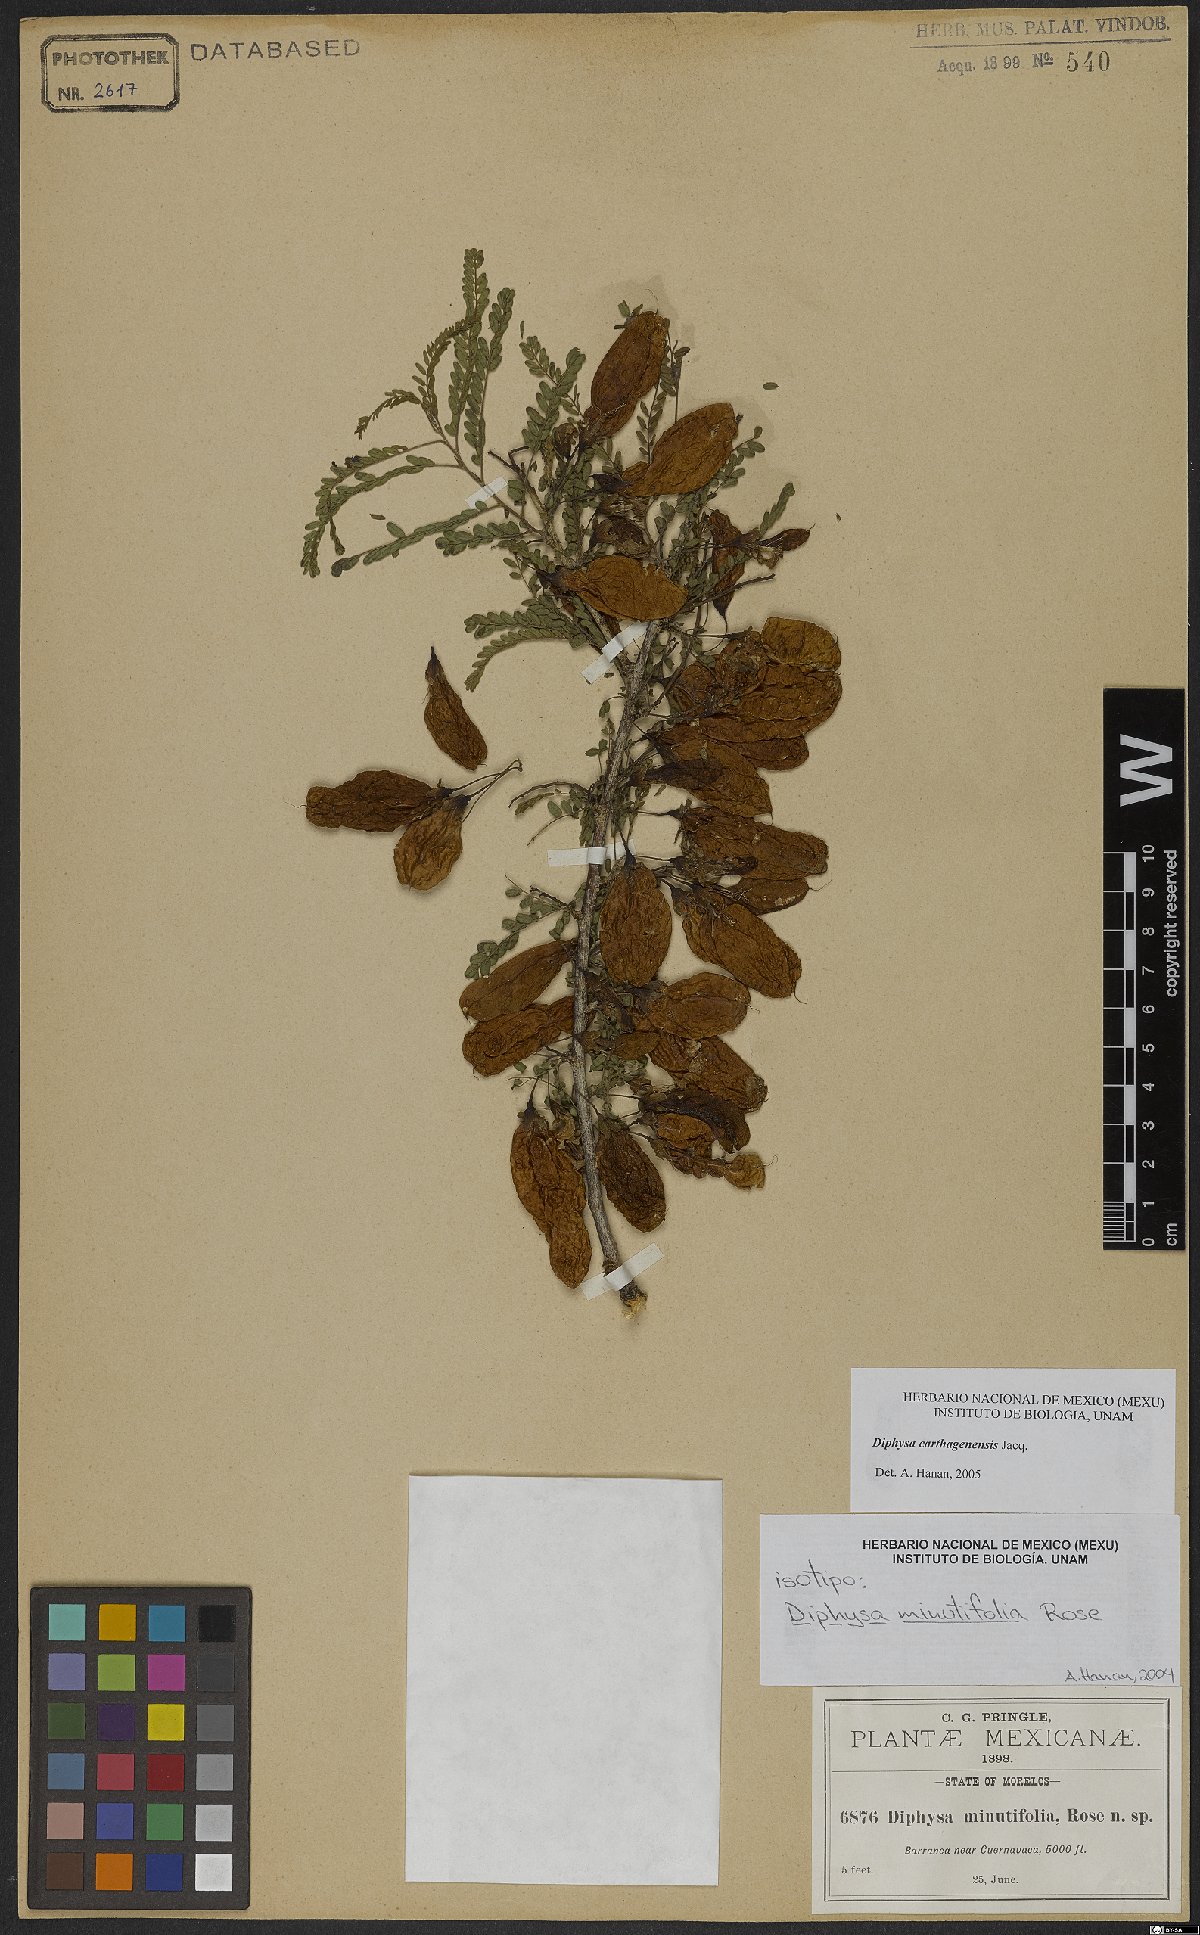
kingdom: Plantae
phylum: Tracheophyta
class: Magnoliopsida
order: Fabales
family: Fabaceae
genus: Diphysa
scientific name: Diphysa carthagenensis
